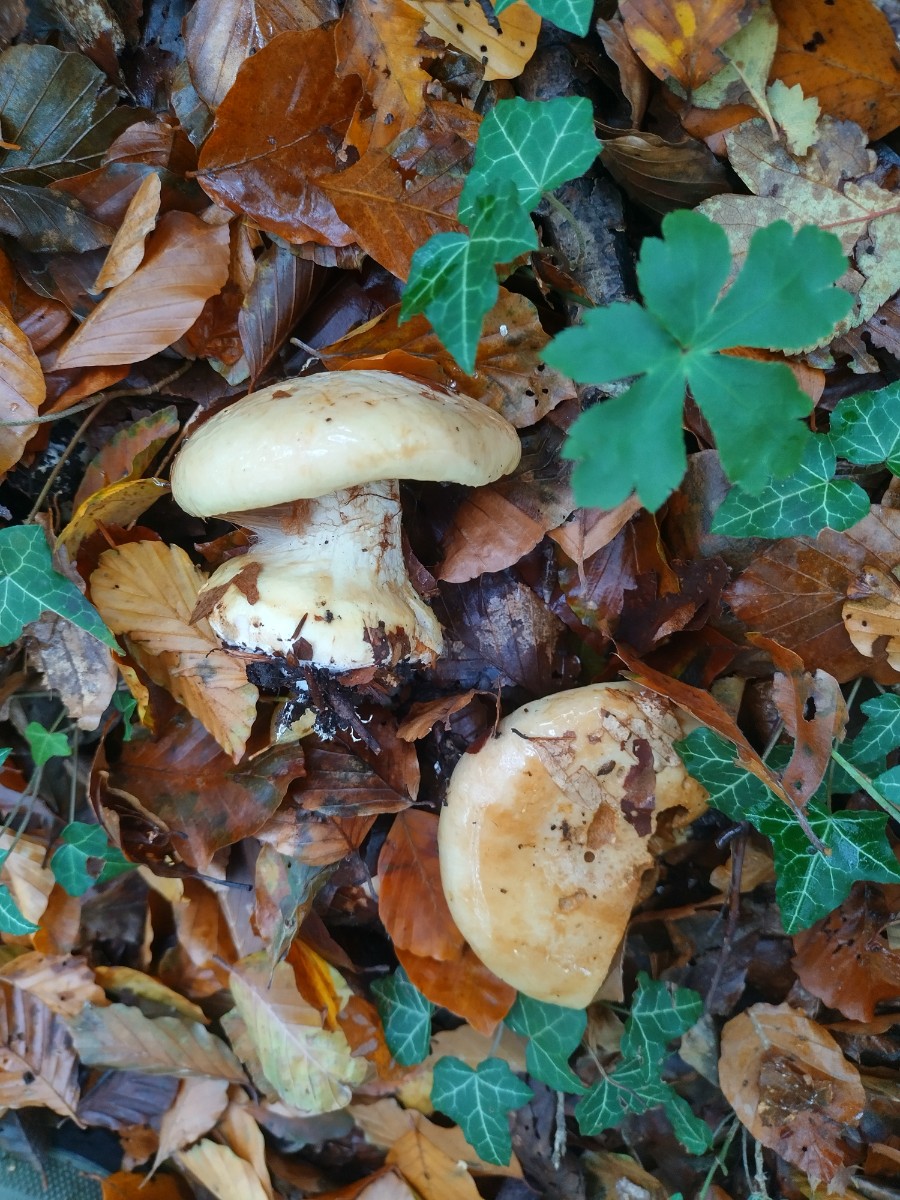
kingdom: Fungi
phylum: Basidiomycota
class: Agaricomycetes
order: Agaricales
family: Cortinariaceae
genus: Phlegmacium
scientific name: Phlegmacium
